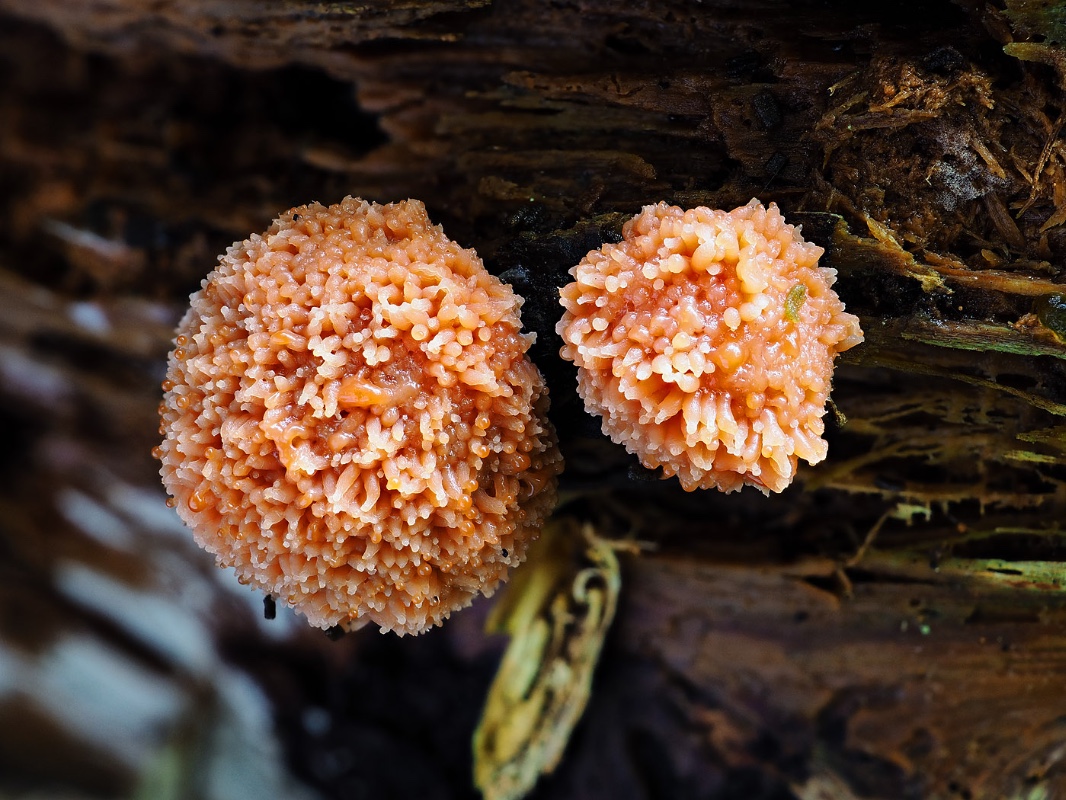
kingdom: Protozoa
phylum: Mycetozoa
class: Myxomycetes
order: Cribrariales
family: Tubiferaceae
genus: Tubifera
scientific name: Tubifera
